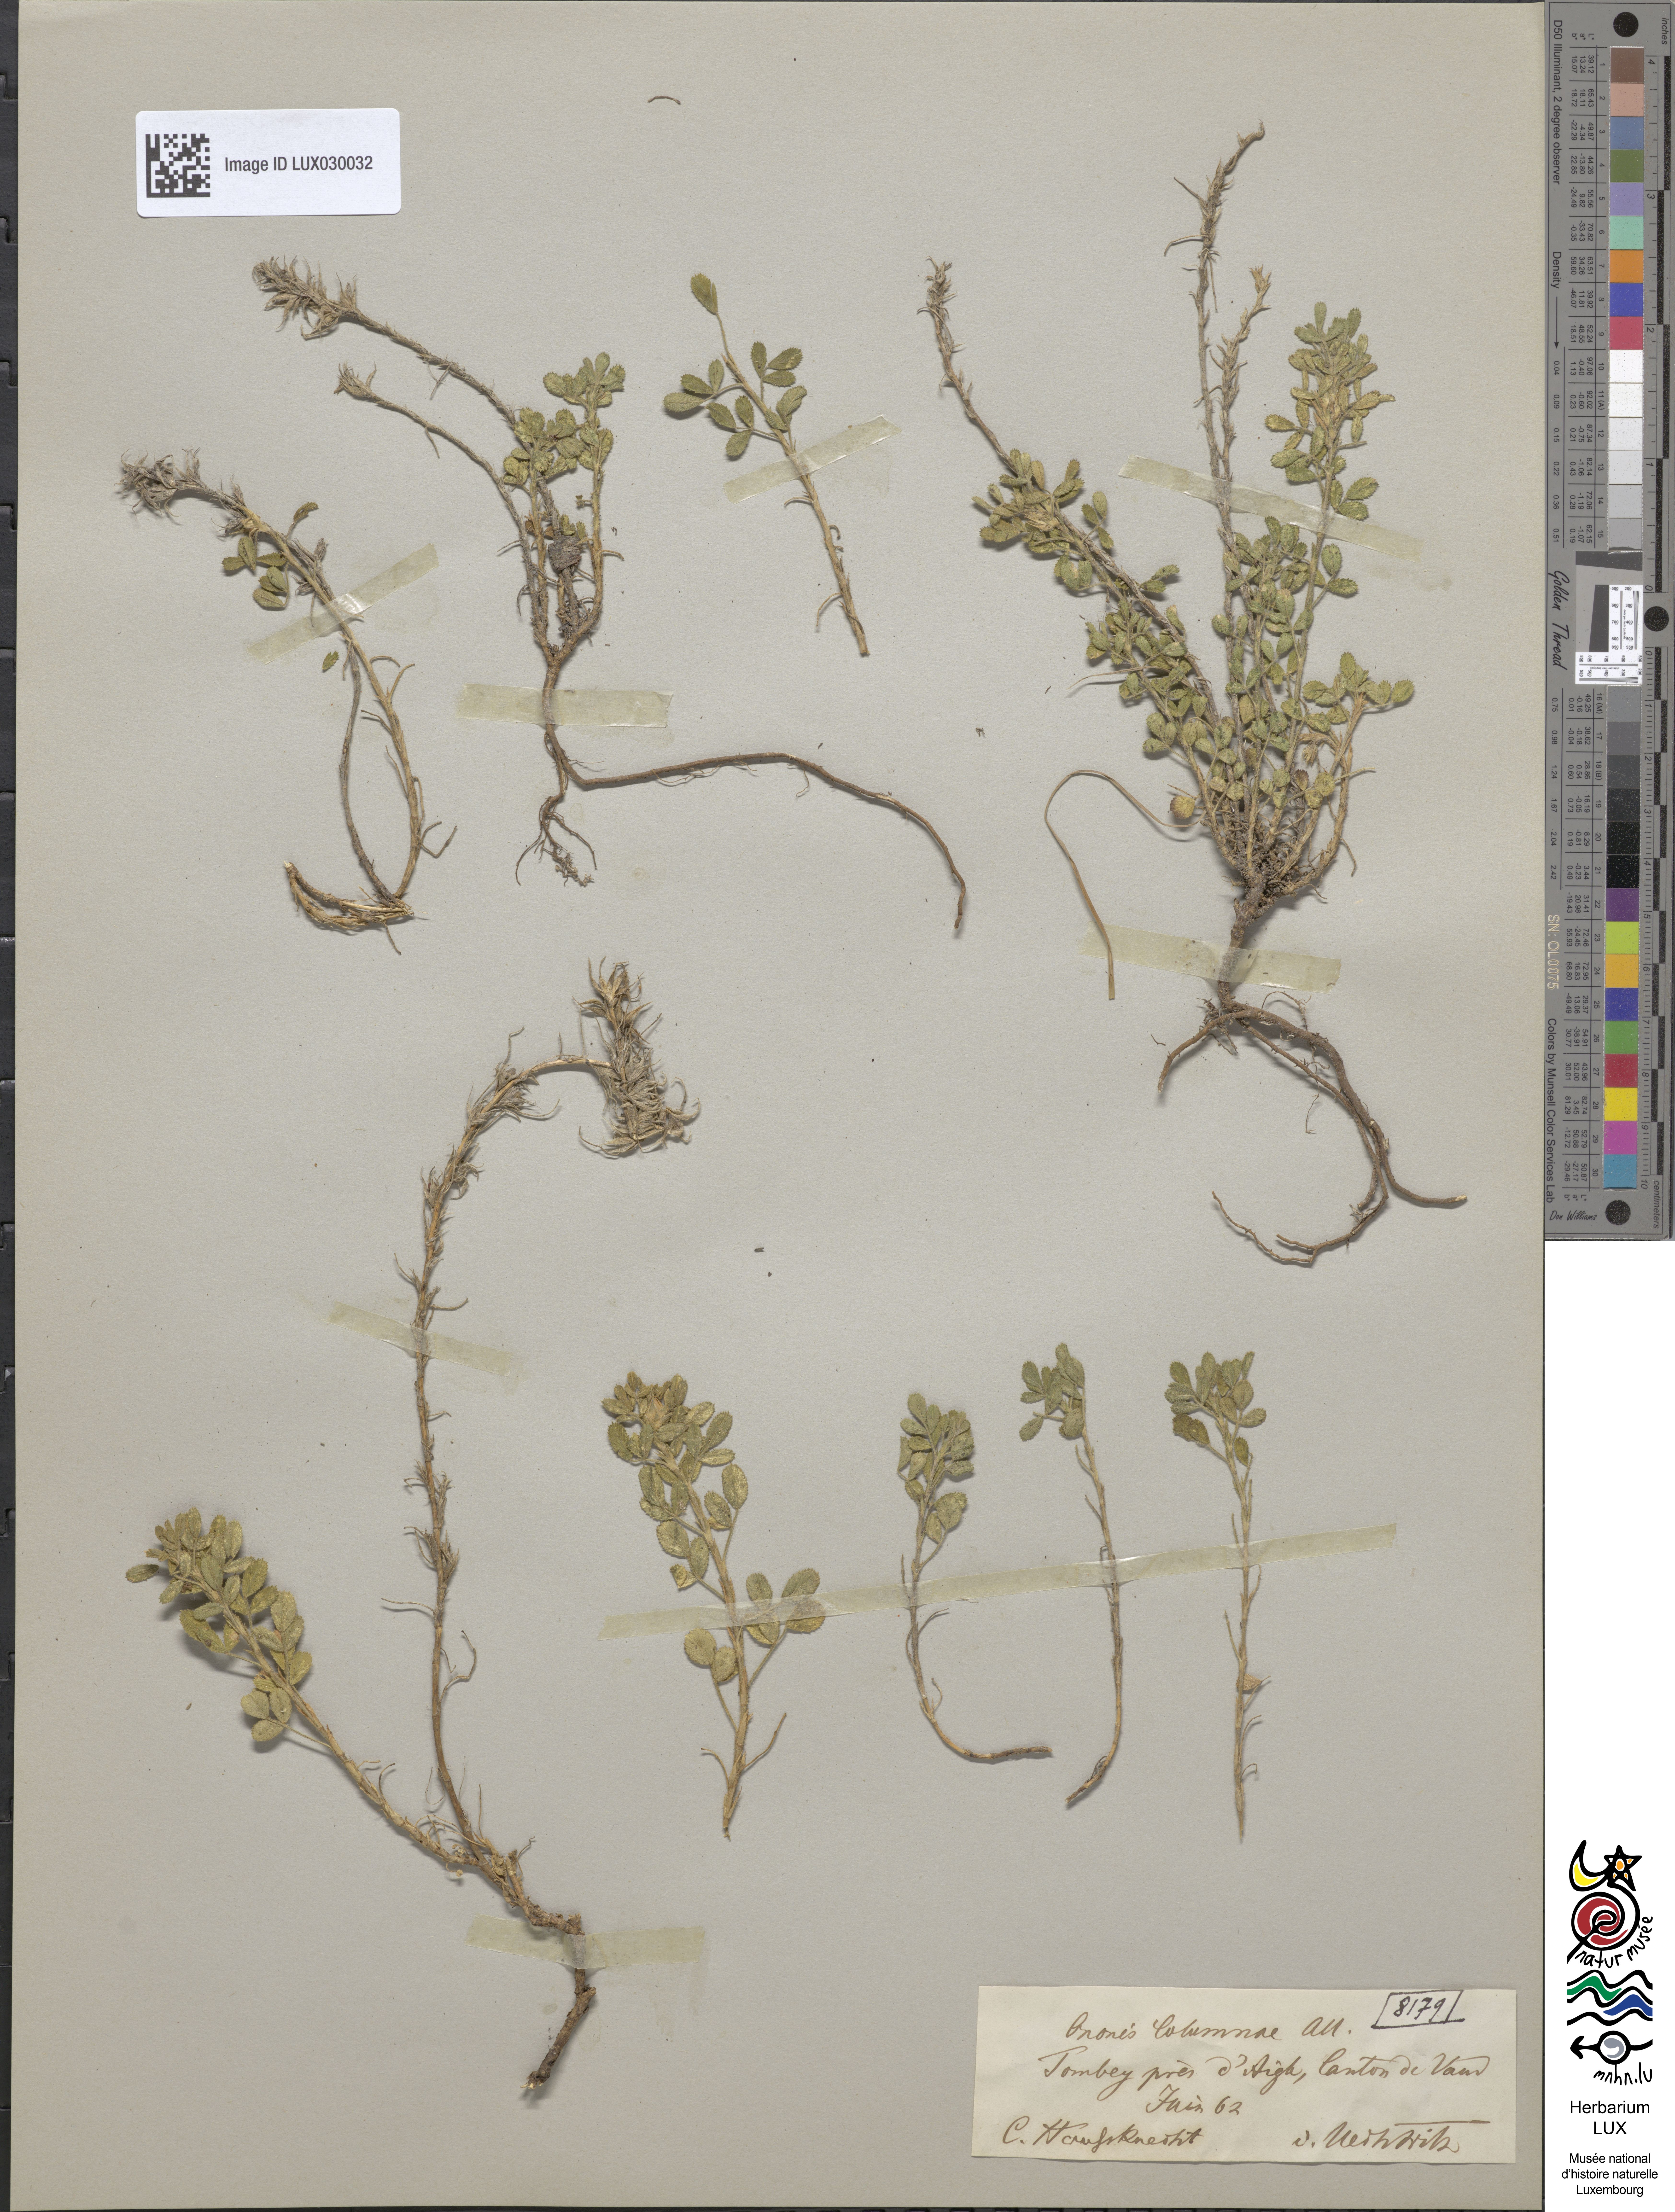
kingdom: Plantae
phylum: Tracheophyta
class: Magnoliopsida
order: Fabales
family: Fabaceae
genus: Ononis
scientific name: Ononis pusilla
